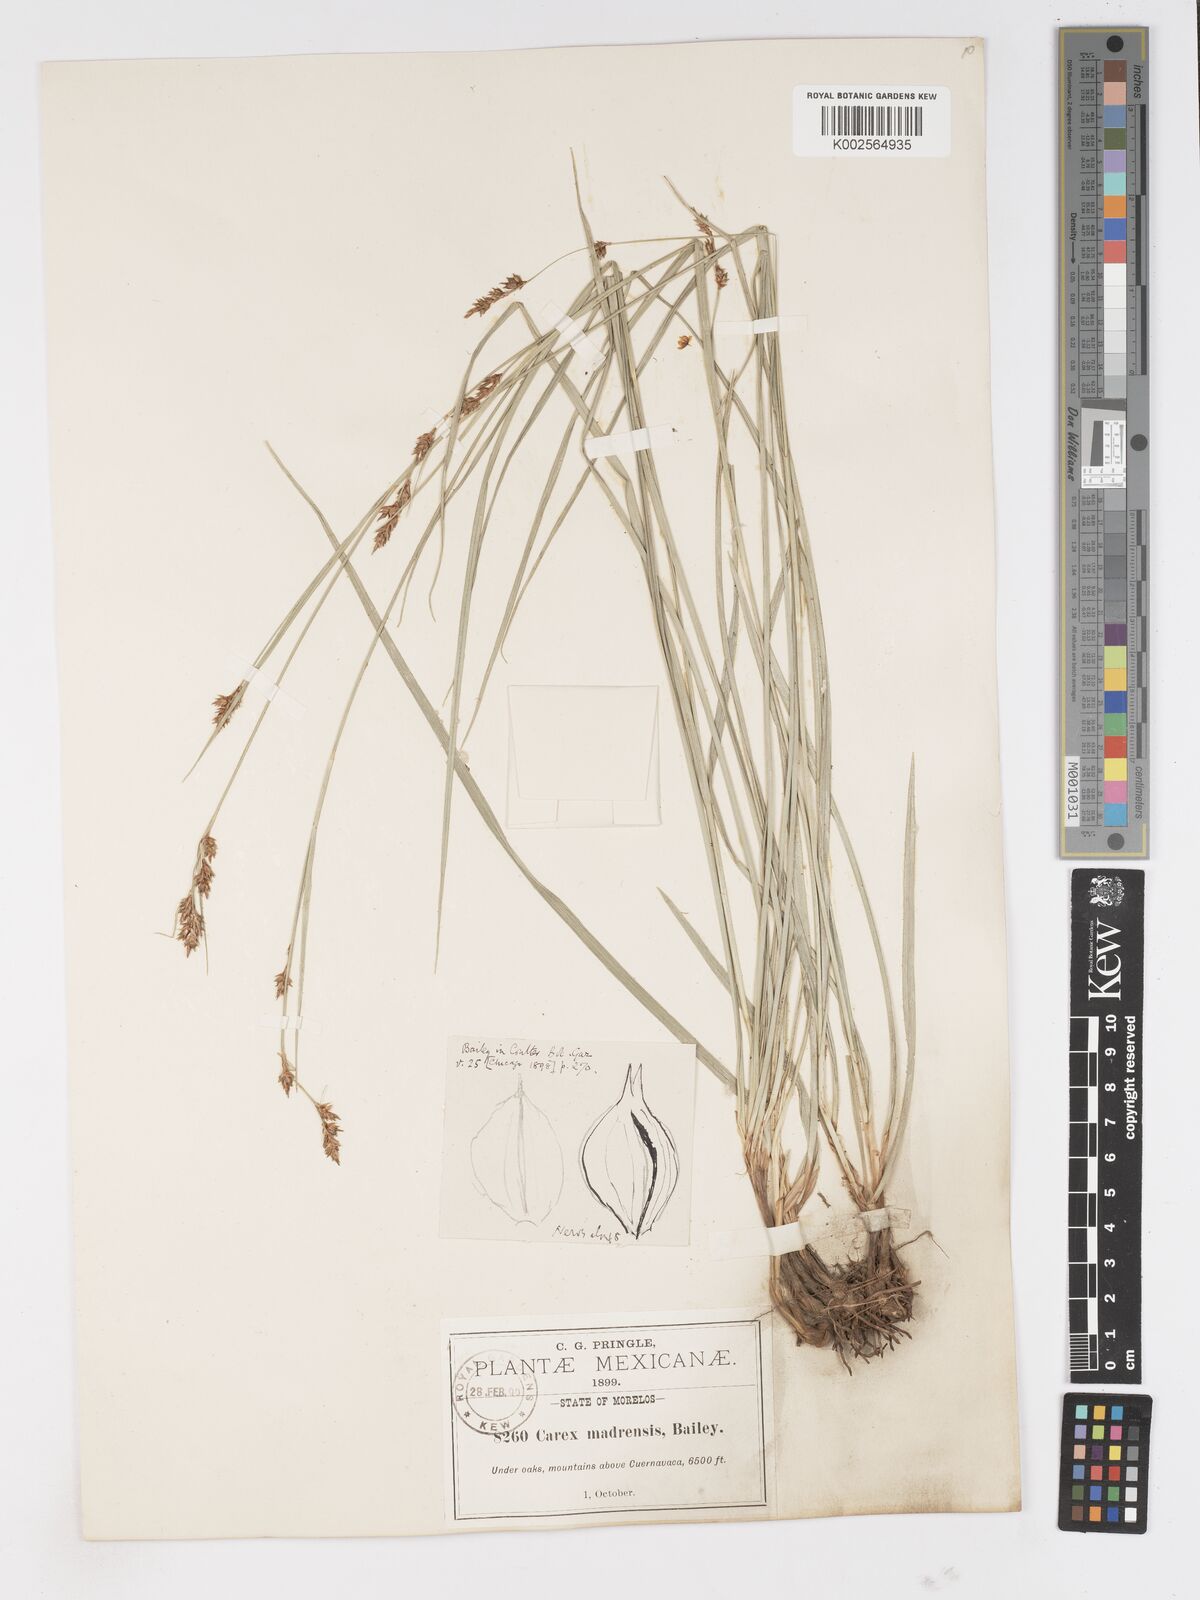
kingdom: Plantae
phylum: Tracheophyta
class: Liliopsida
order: Poales
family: Cyperaceae
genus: Carex
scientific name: Carex madrensis
